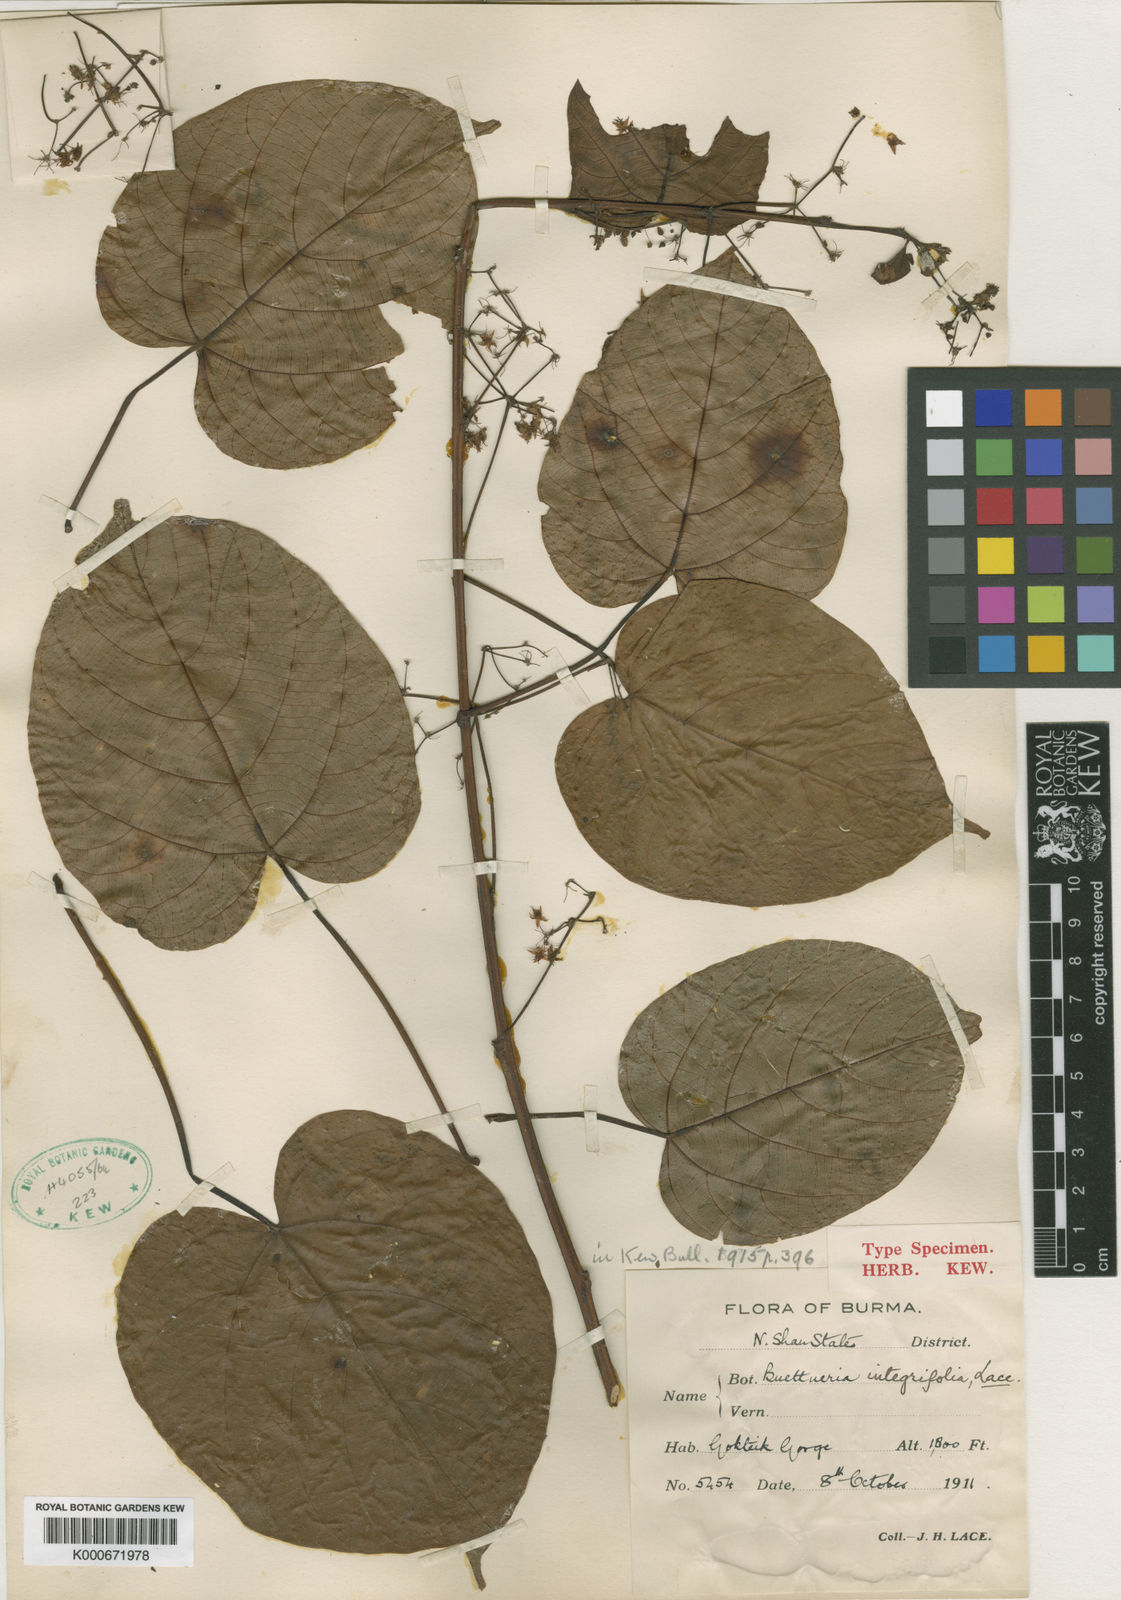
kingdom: Plantae
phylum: Tracheophyta
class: Magnoliopsida
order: Malvales
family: Malvaceae
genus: Byttneria
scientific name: Byttneria integrifolia
